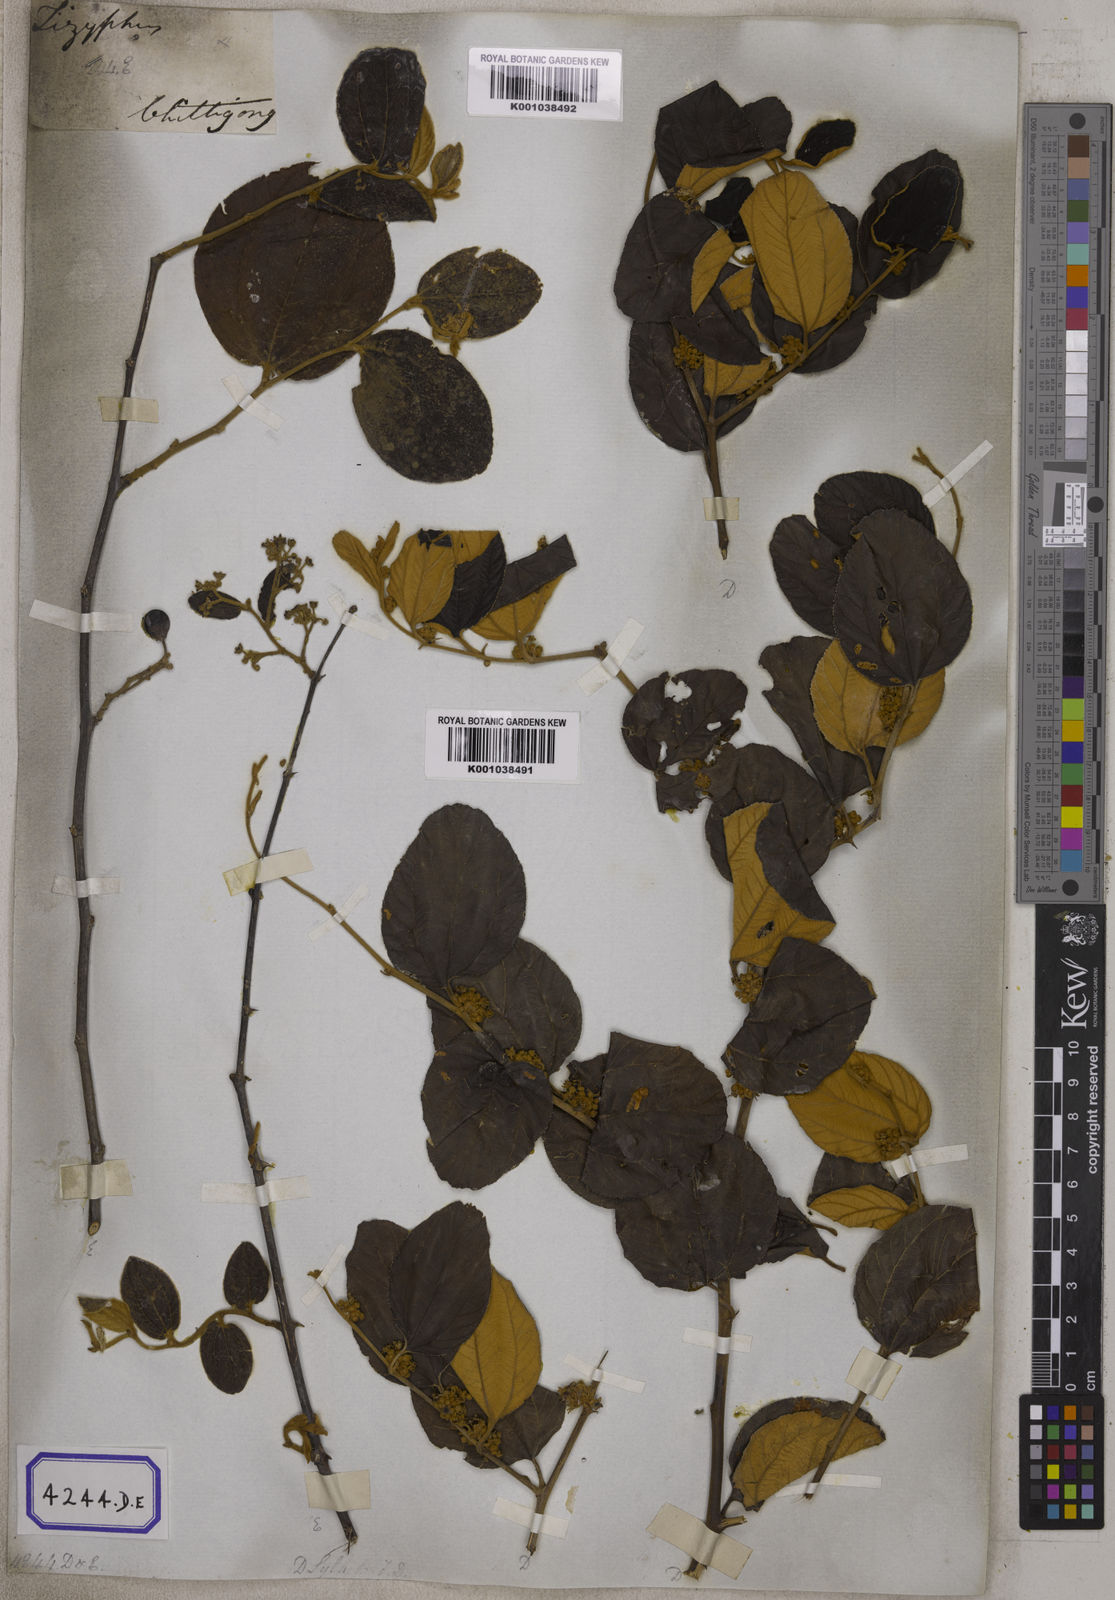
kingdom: Plantae
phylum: Tracheophyta
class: Magnoliopsida
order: Rosales
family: Rhamnaceae
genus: Ziziphus
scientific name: Ziziphus
